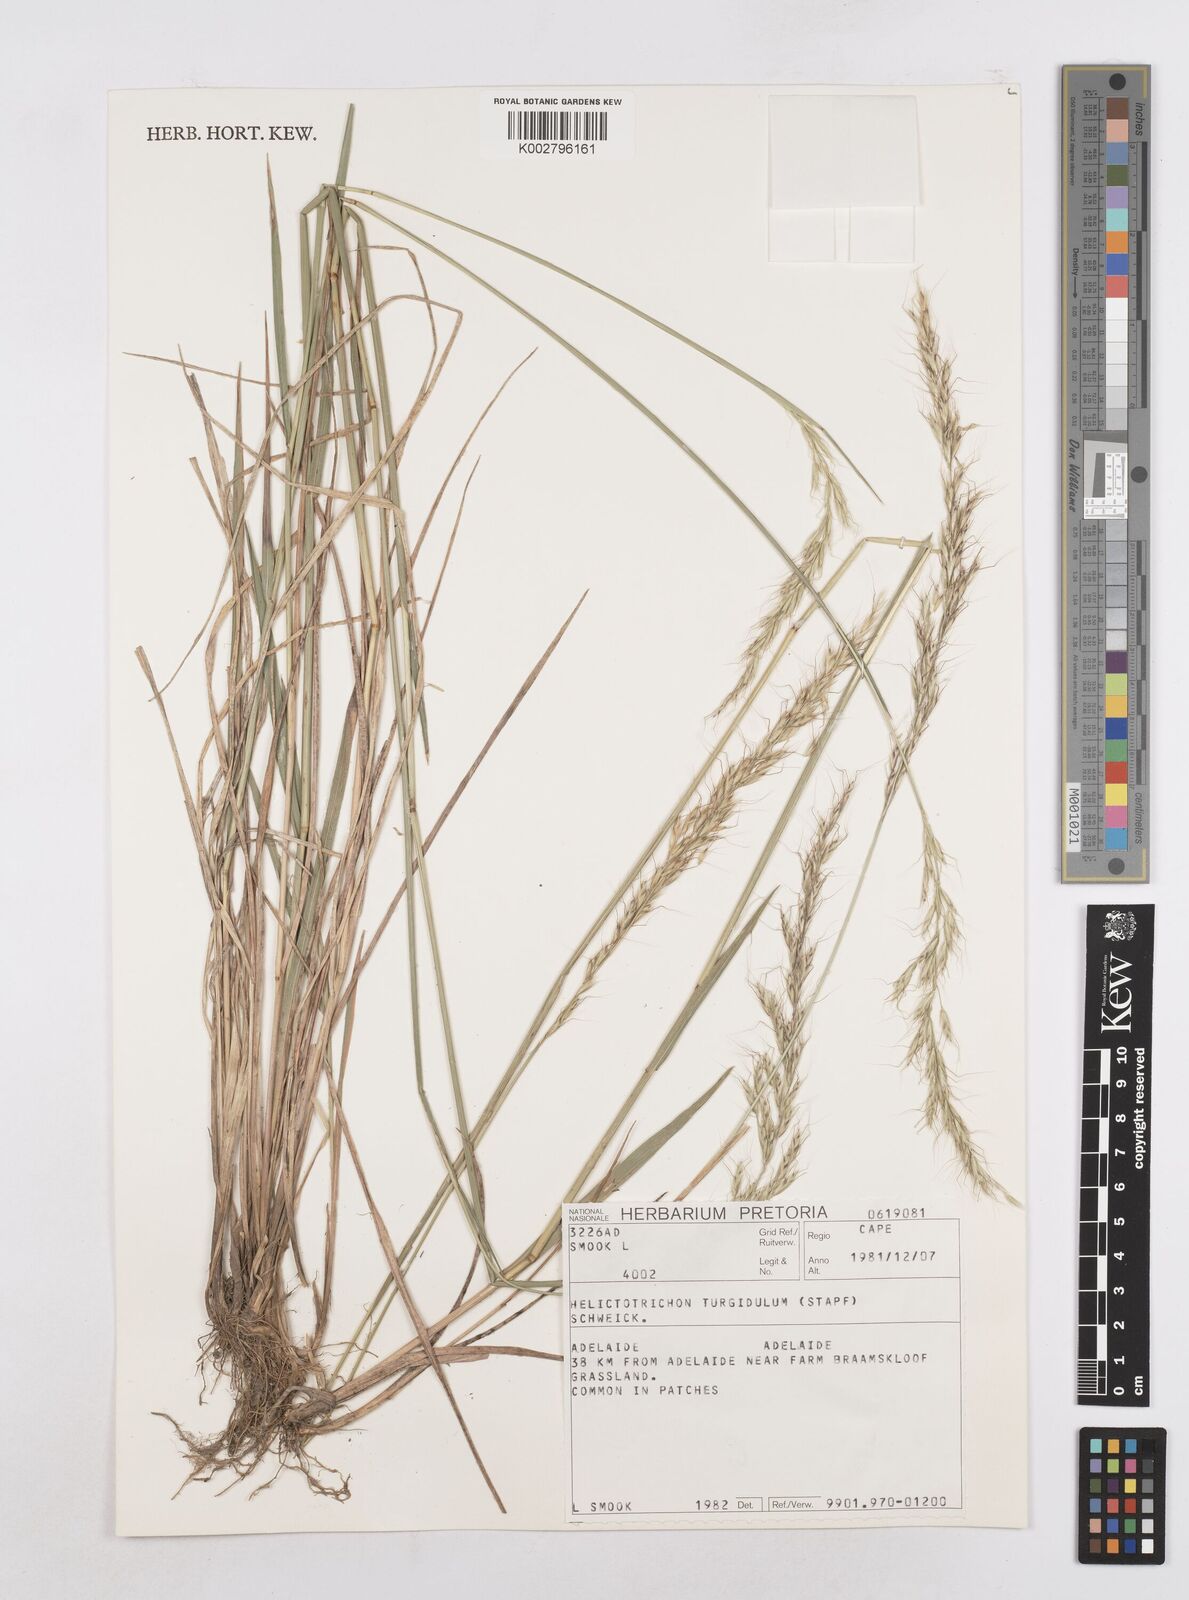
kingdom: Plantae
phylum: Tracheophyta
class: Liliopsida
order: Poales
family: Poaceae
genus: Trisetopsis
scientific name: Trisetopsis imberbis
